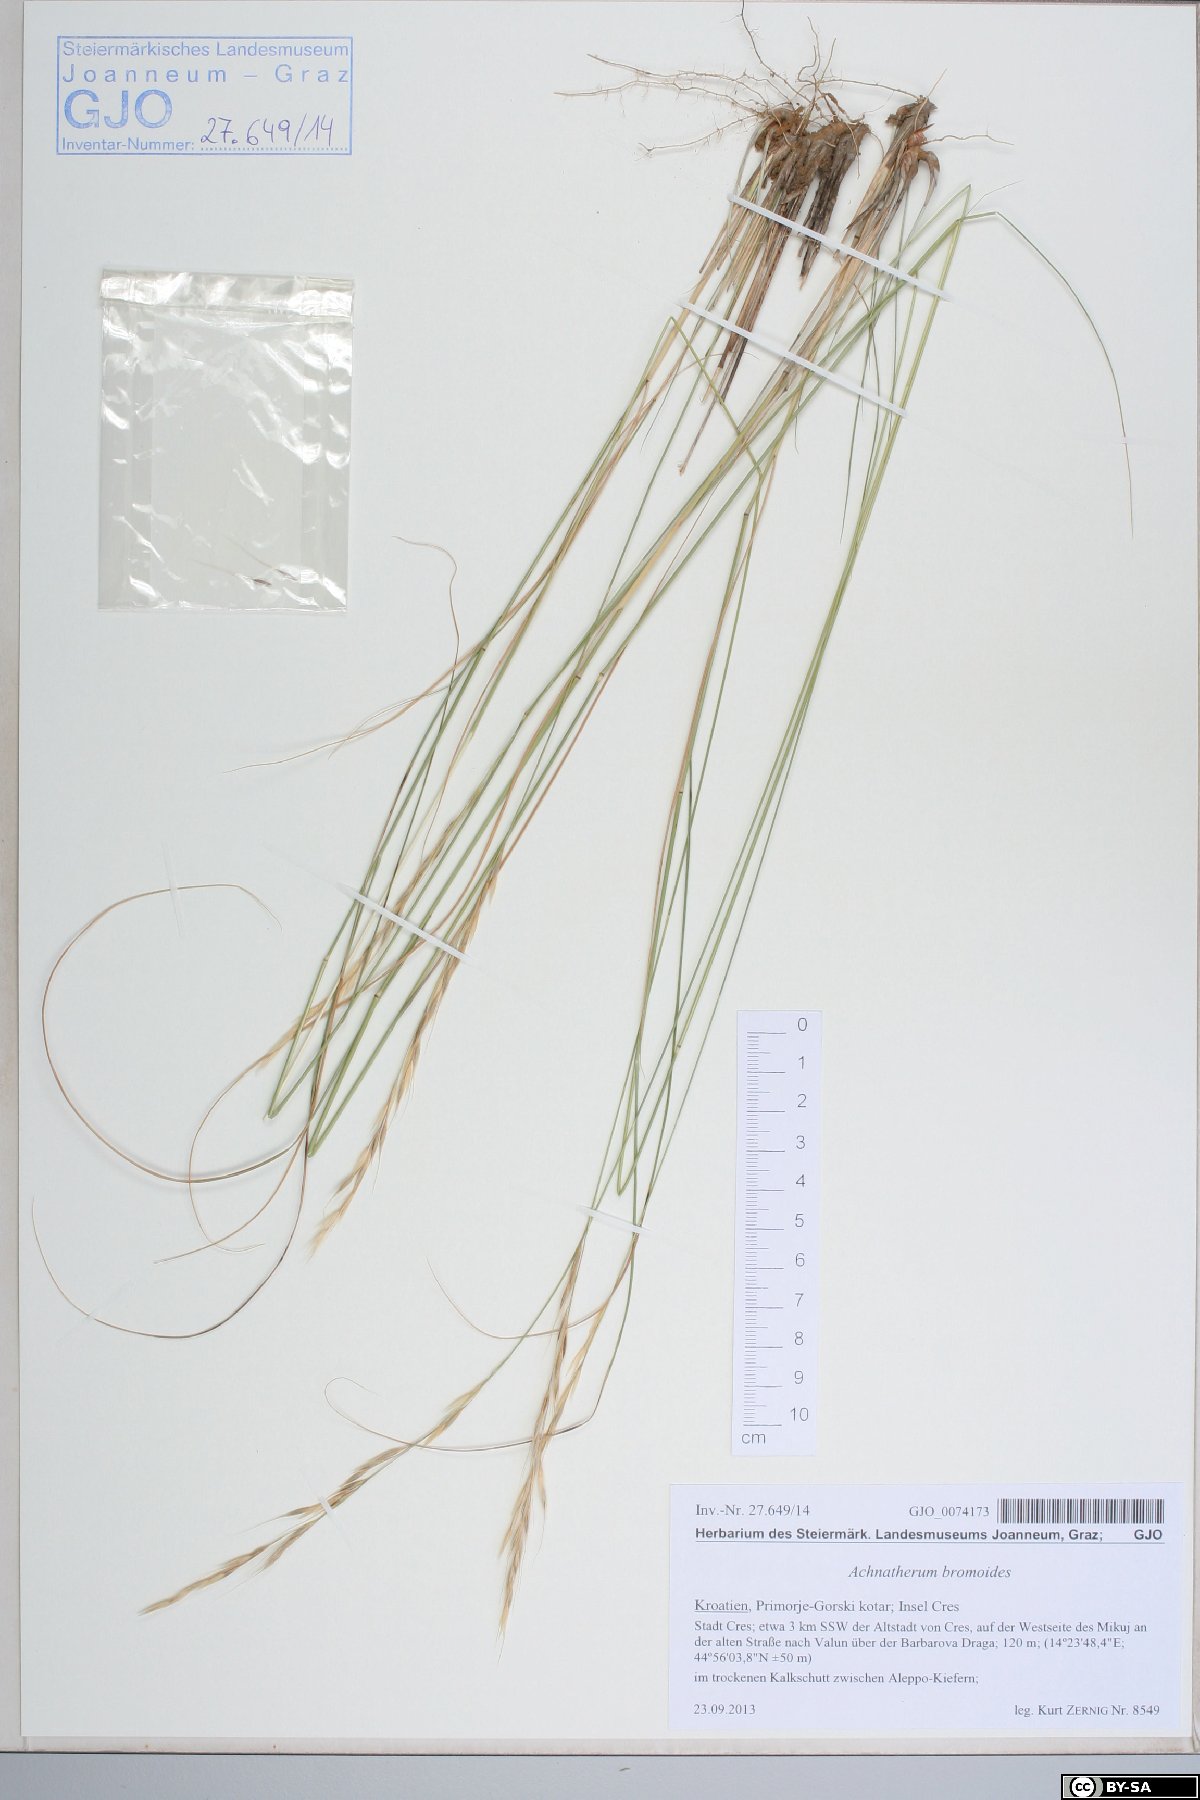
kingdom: Plantae
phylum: Tracheophyta
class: Liliopsida
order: Poales
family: Poaceae
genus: Achnatherum
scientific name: Achnatherum bromoides
